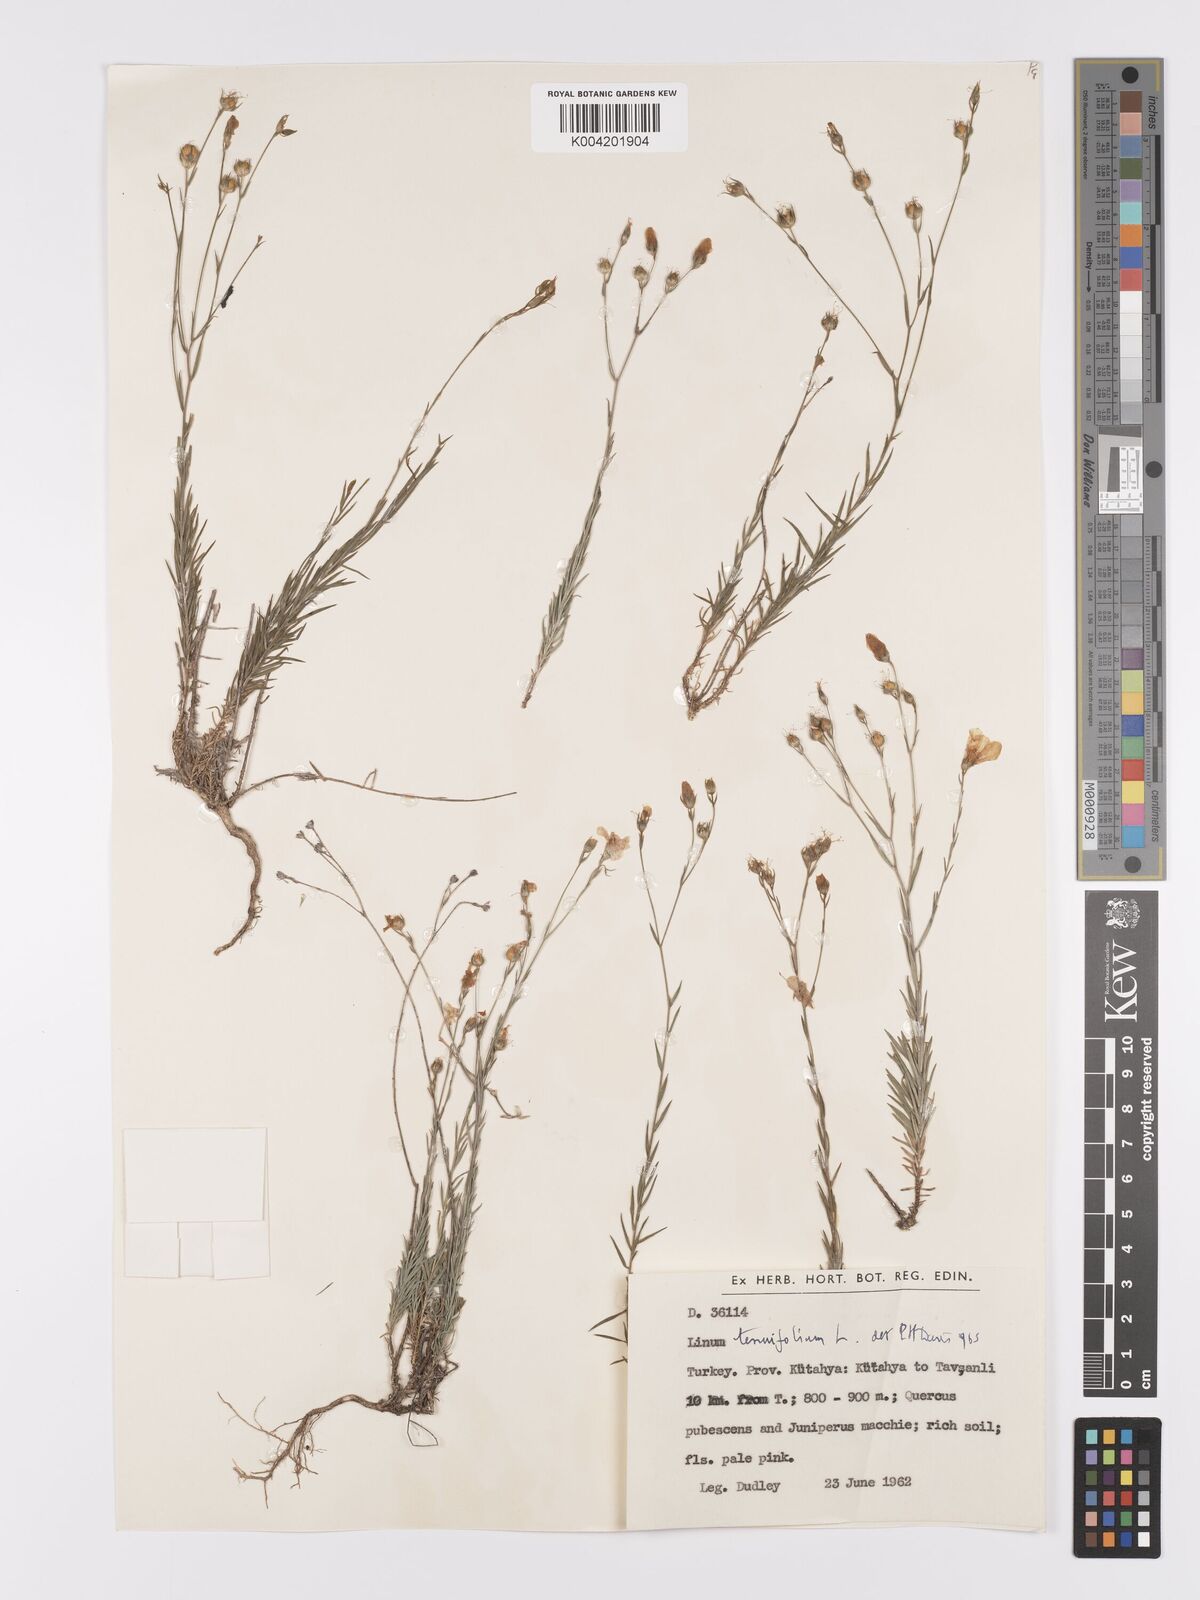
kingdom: Plantae
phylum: Tracheophyta
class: Magnoliopsida
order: Malpighiales
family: Linaceae
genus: Linum
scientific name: Linum
